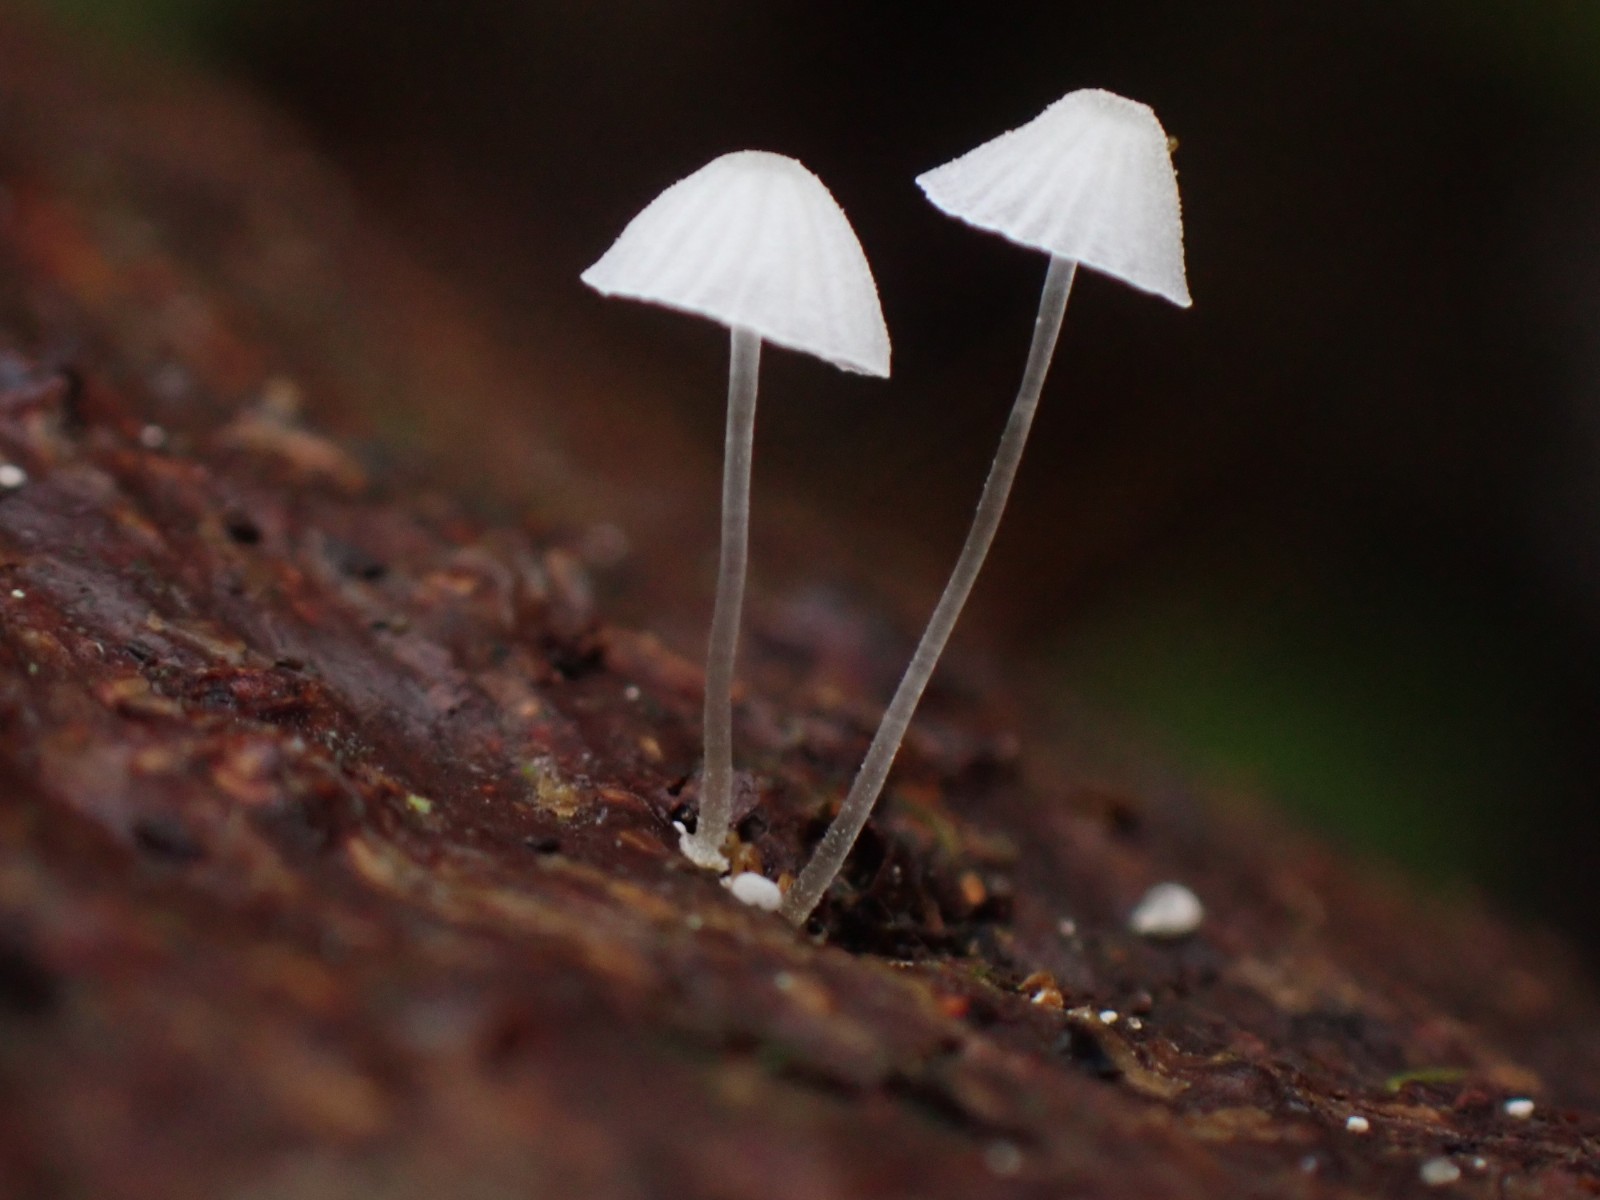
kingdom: Fungi
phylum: Basidiomycota
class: Agaricomycetes
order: Agaricales
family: Mycenaceae
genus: Mycena
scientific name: Mycena tenerrima
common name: pudret huesvamp
